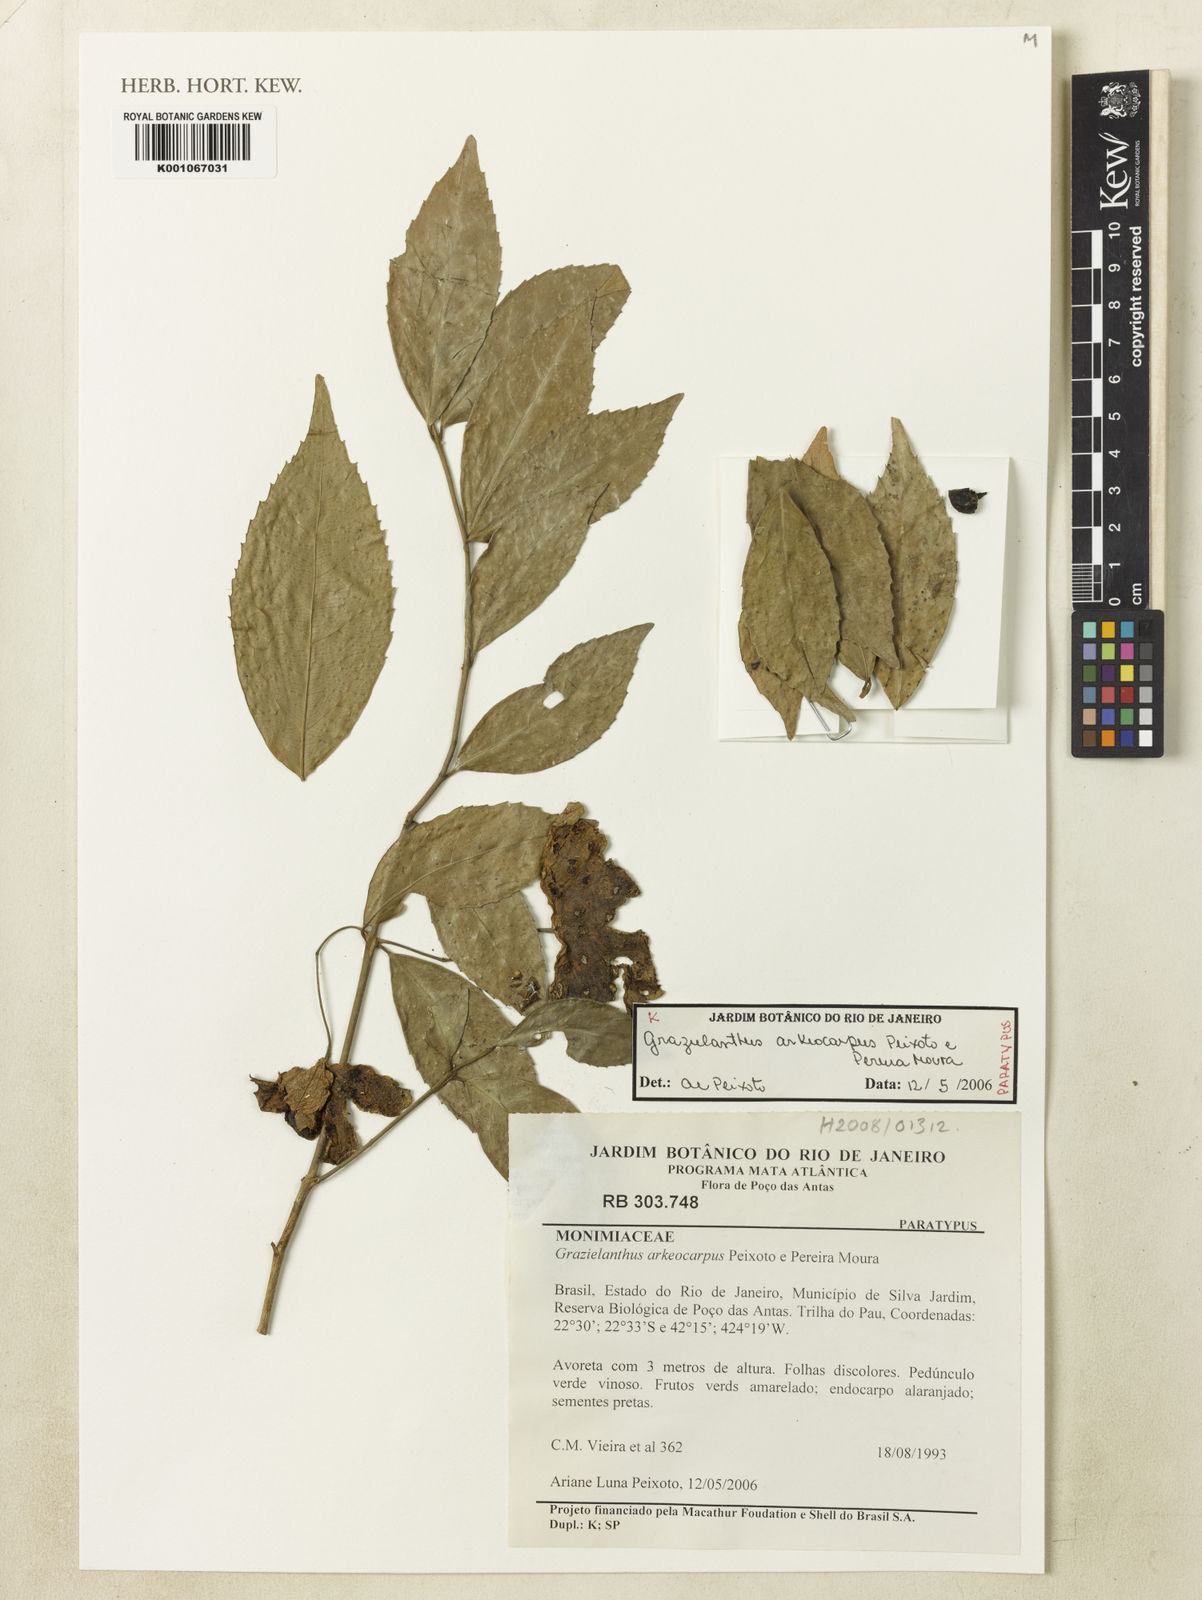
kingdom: Plantae
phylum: Tracheophyta
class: Magnoliopsida
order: Laurales
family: Monimiaceae
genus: Grazielanthus
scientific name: Grazielanthus arkeocarpus
